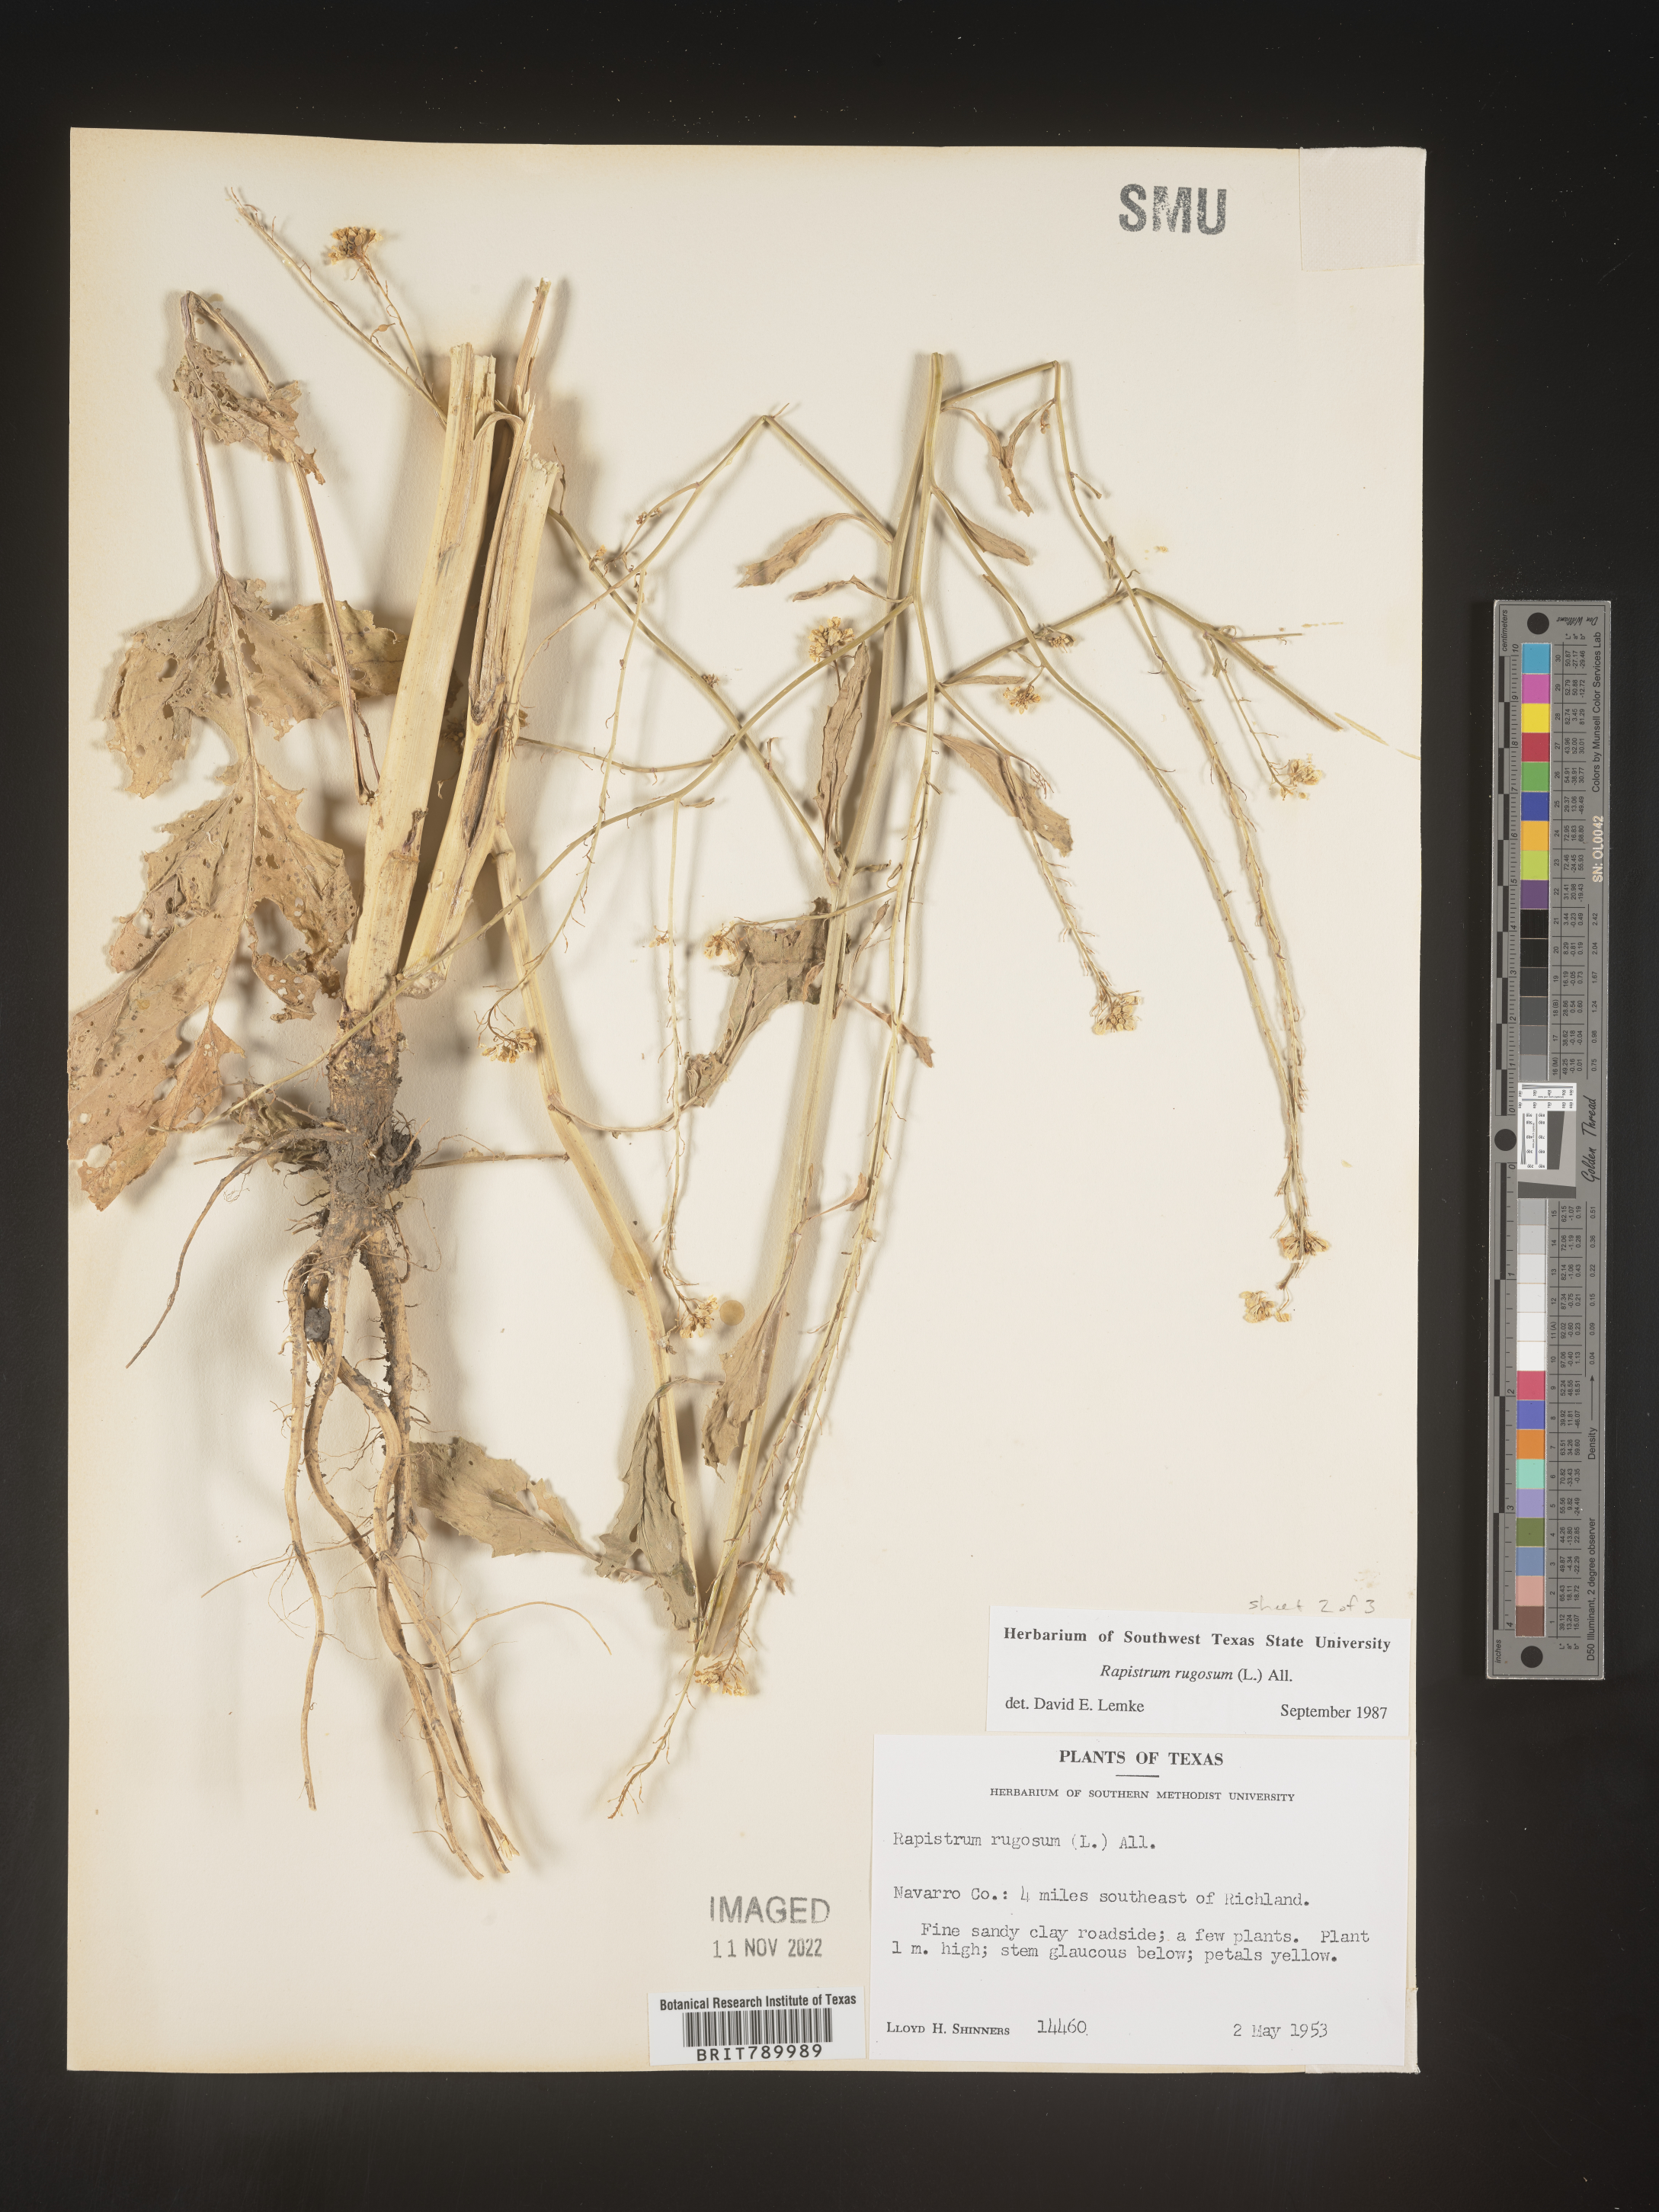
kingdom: Plantae
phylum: Tracheophyta
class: Magnoliopsida
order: Brassicales
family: Brassicaceae
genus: Rapistrum
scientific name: Rapistrum rugosum
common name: Annual bastardcabbage
